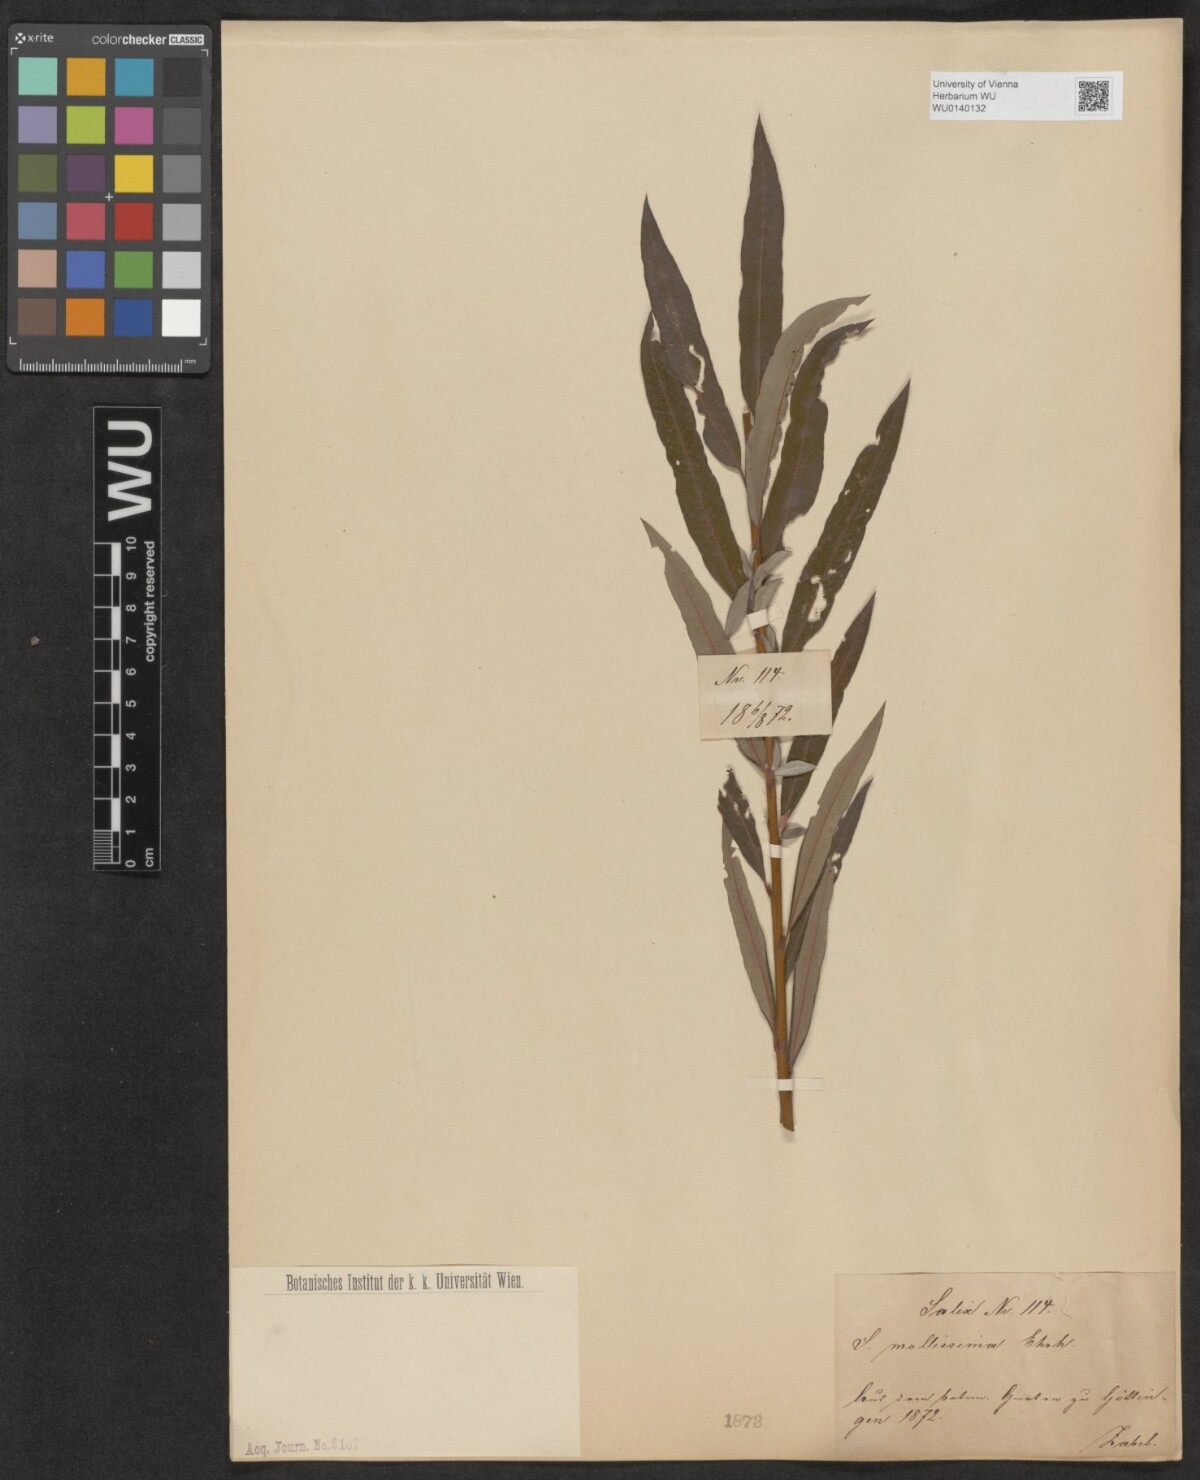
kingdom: Plantae
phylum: Tracheophyta
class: Magnoliopsida
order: Malpighiales
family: Salicaceae
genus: Salix
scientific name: Salix mollissima
